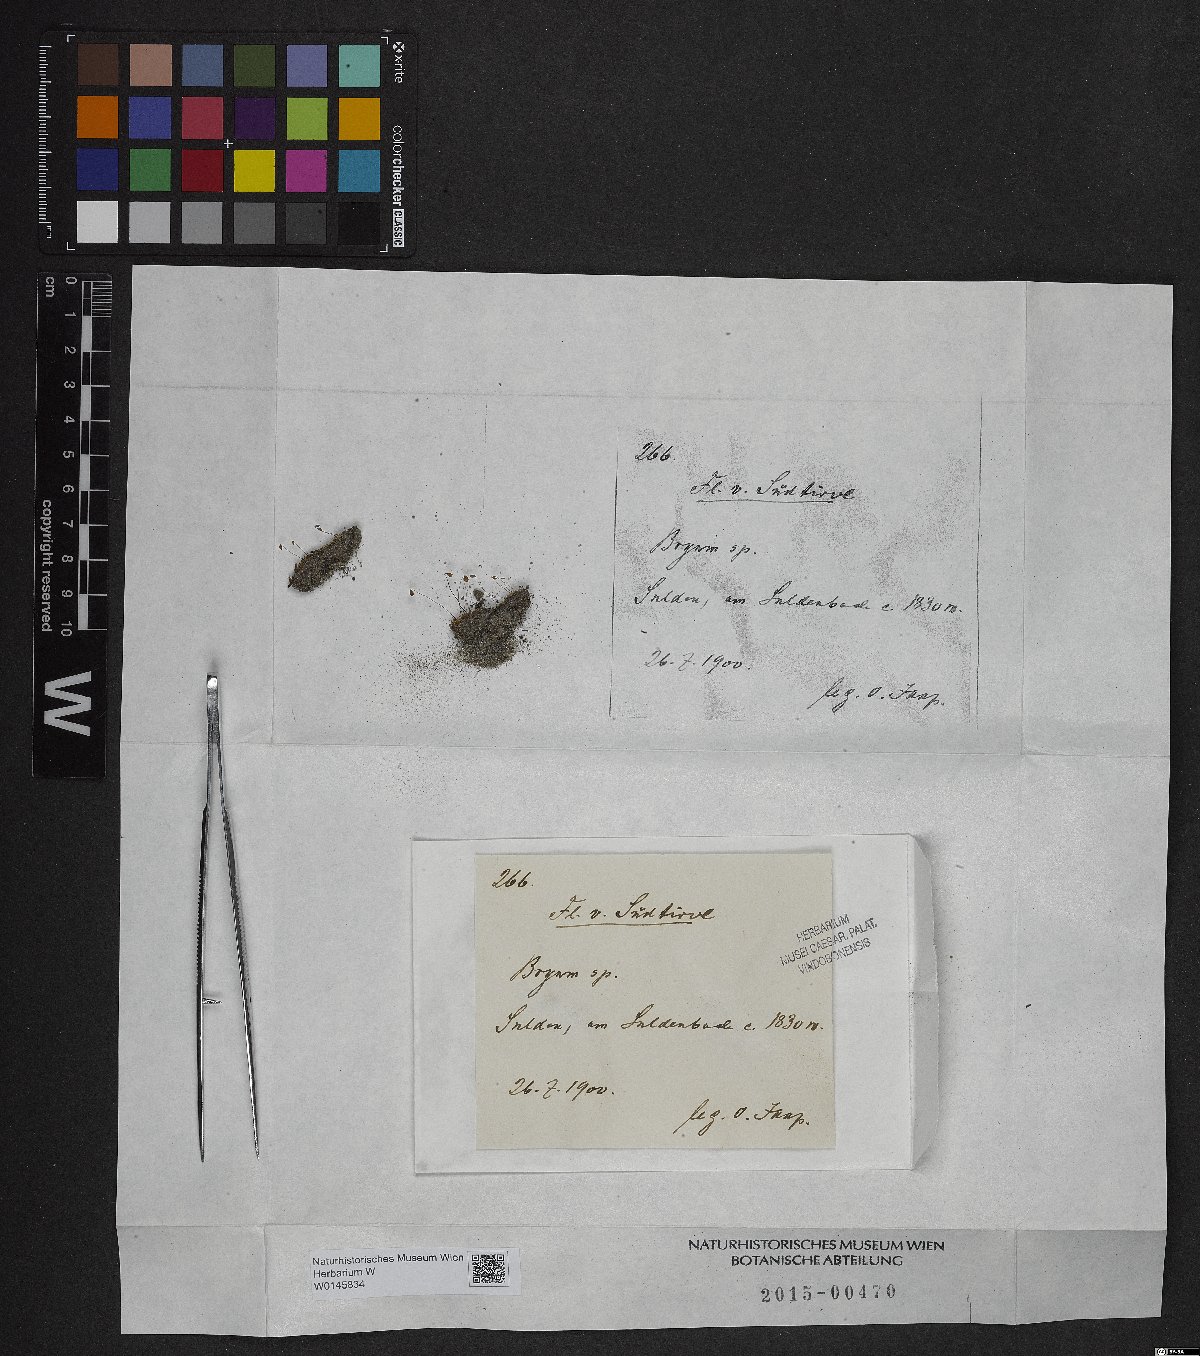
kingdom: Plantae
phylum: Bryophyta
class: Bryopsida
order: Bryales
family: Bryaceae
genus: Bryum
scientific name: Bryum
